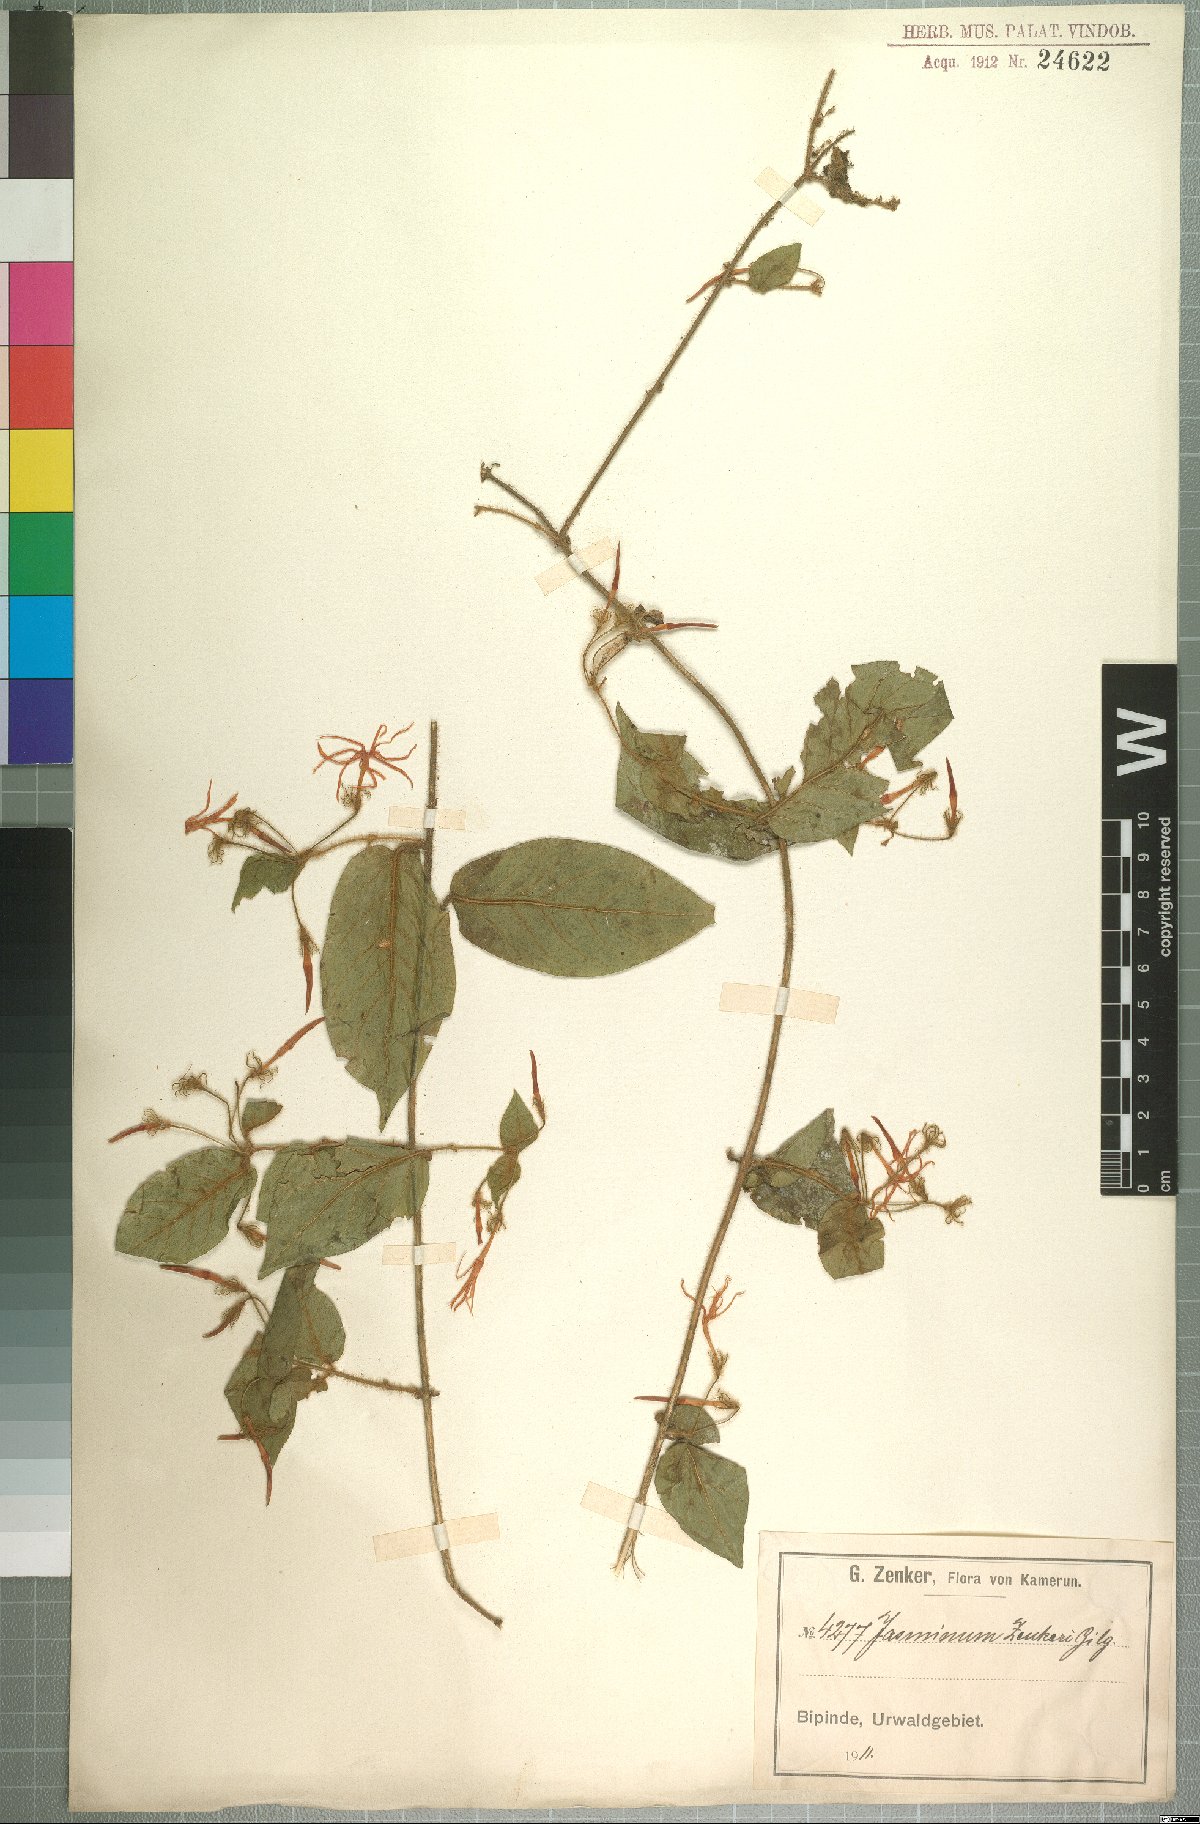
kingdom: Plantae
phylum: Tracheophyta
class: Magnoliopsida
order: Lamiales
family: Oleaceae
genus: Jasminum
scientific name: Jasminum preussii
